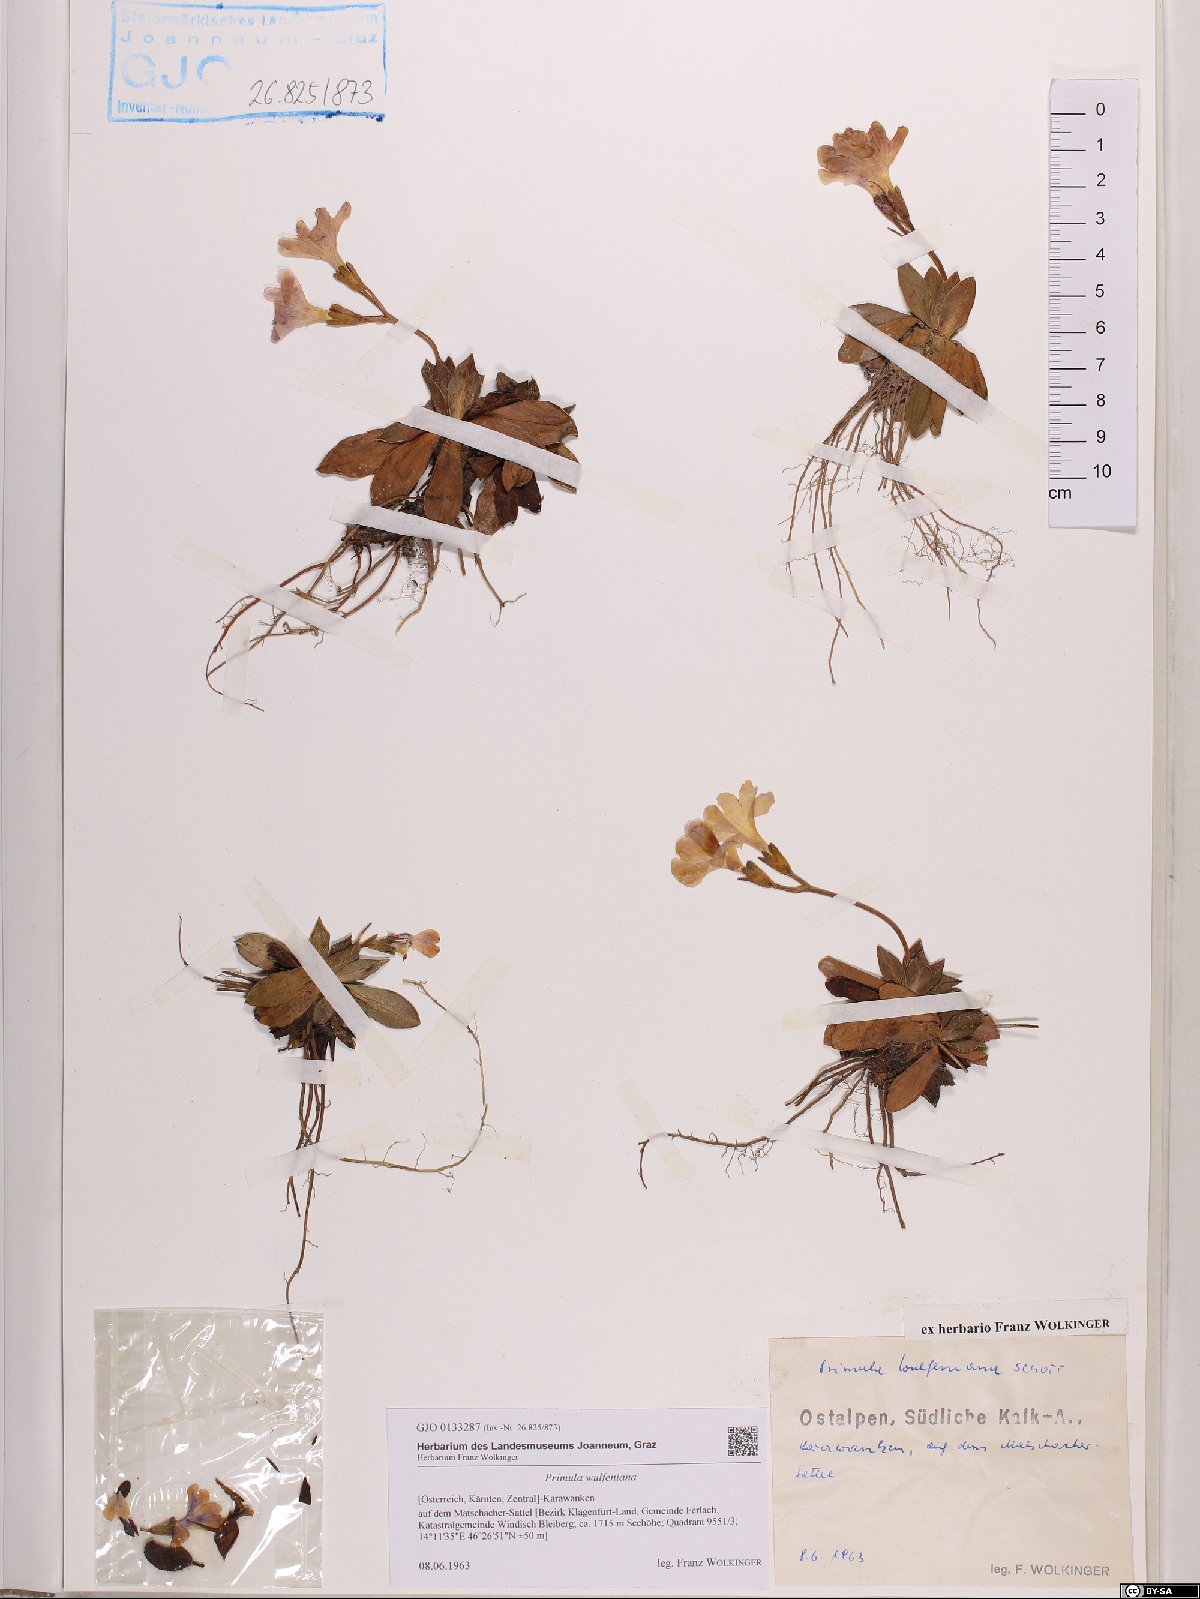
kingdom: Plantae
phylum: Tracheophyta
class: Magnoliopsida
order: Ericales
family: Primulaceae
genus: Primula
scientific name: Primula wulfeniana
